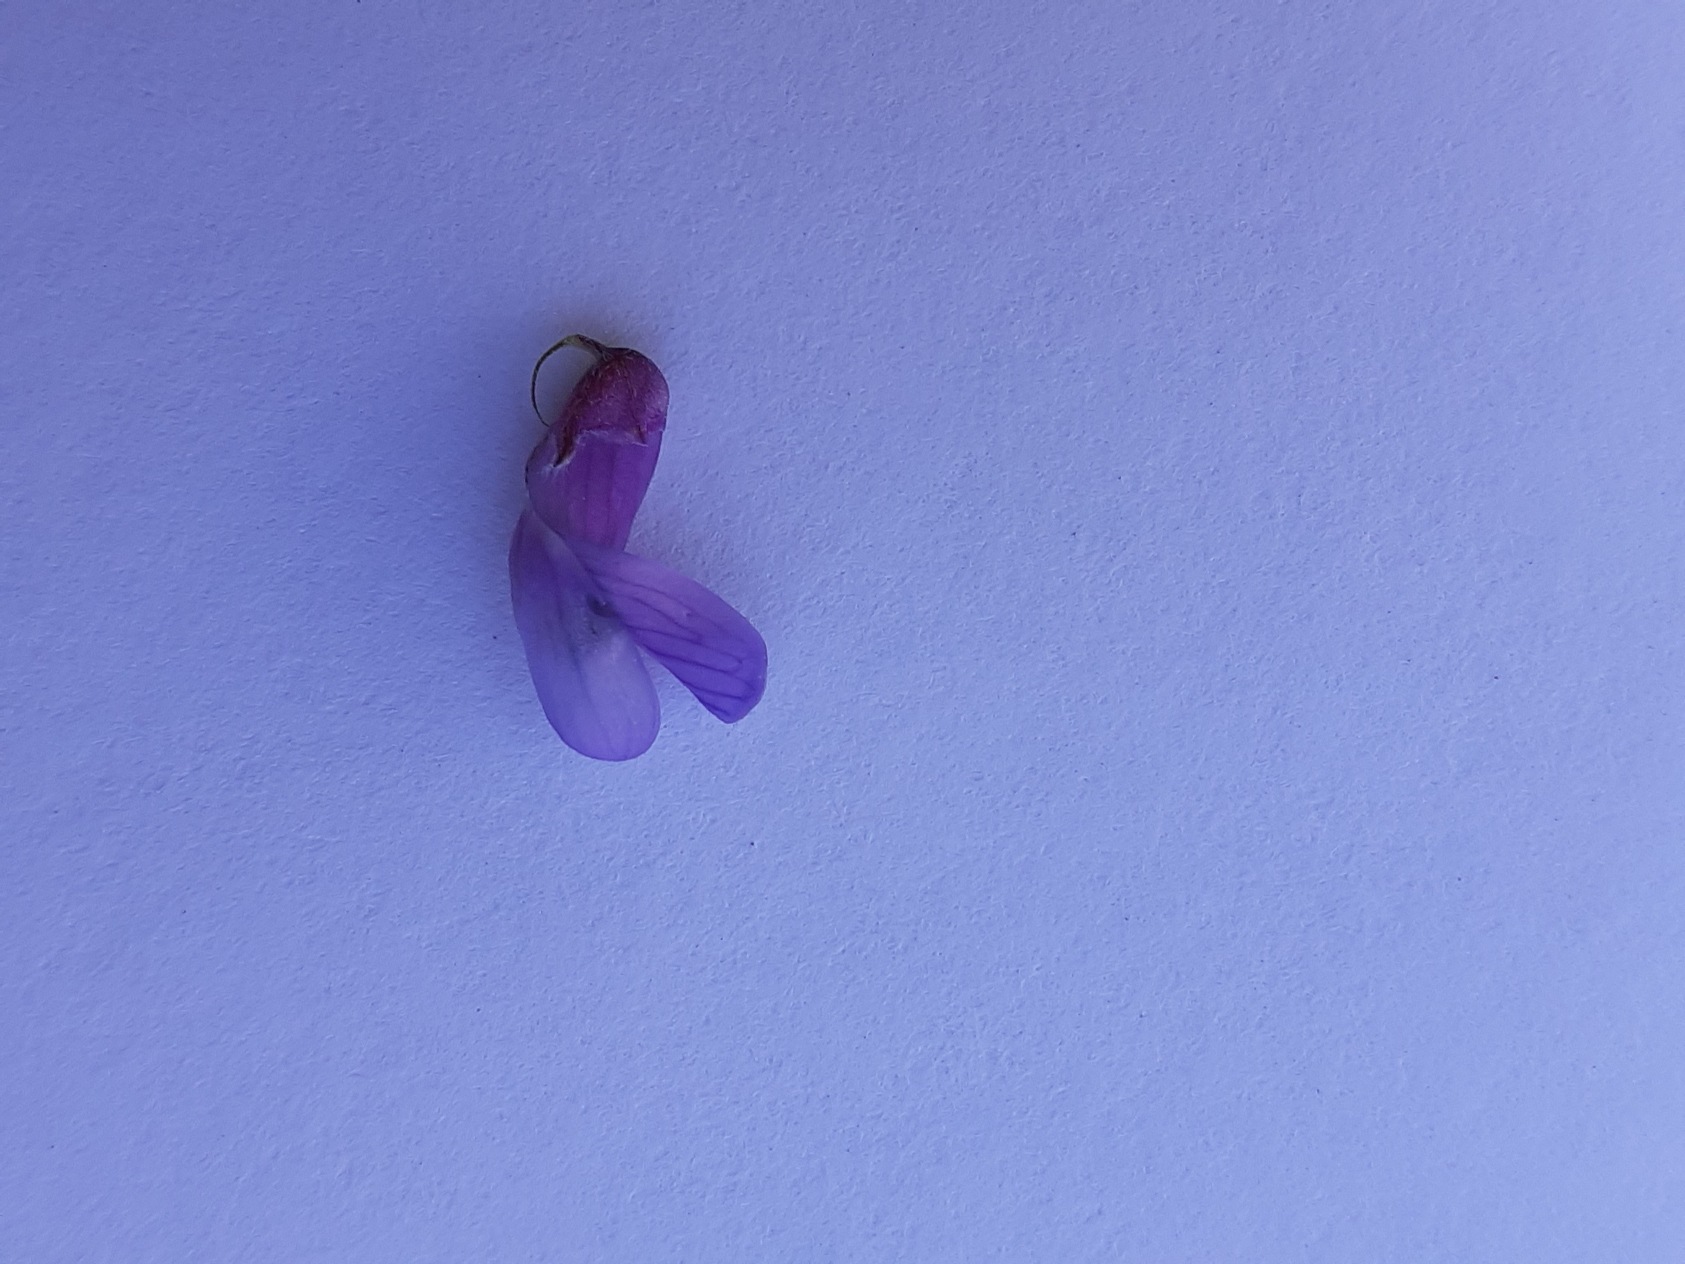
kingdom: Plantae
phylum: Tracheophyta
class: Magnoliopsida
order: Fabales
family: Fabaceae
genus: Vicia
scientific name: Vicia cracca
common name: Muse-vikke
